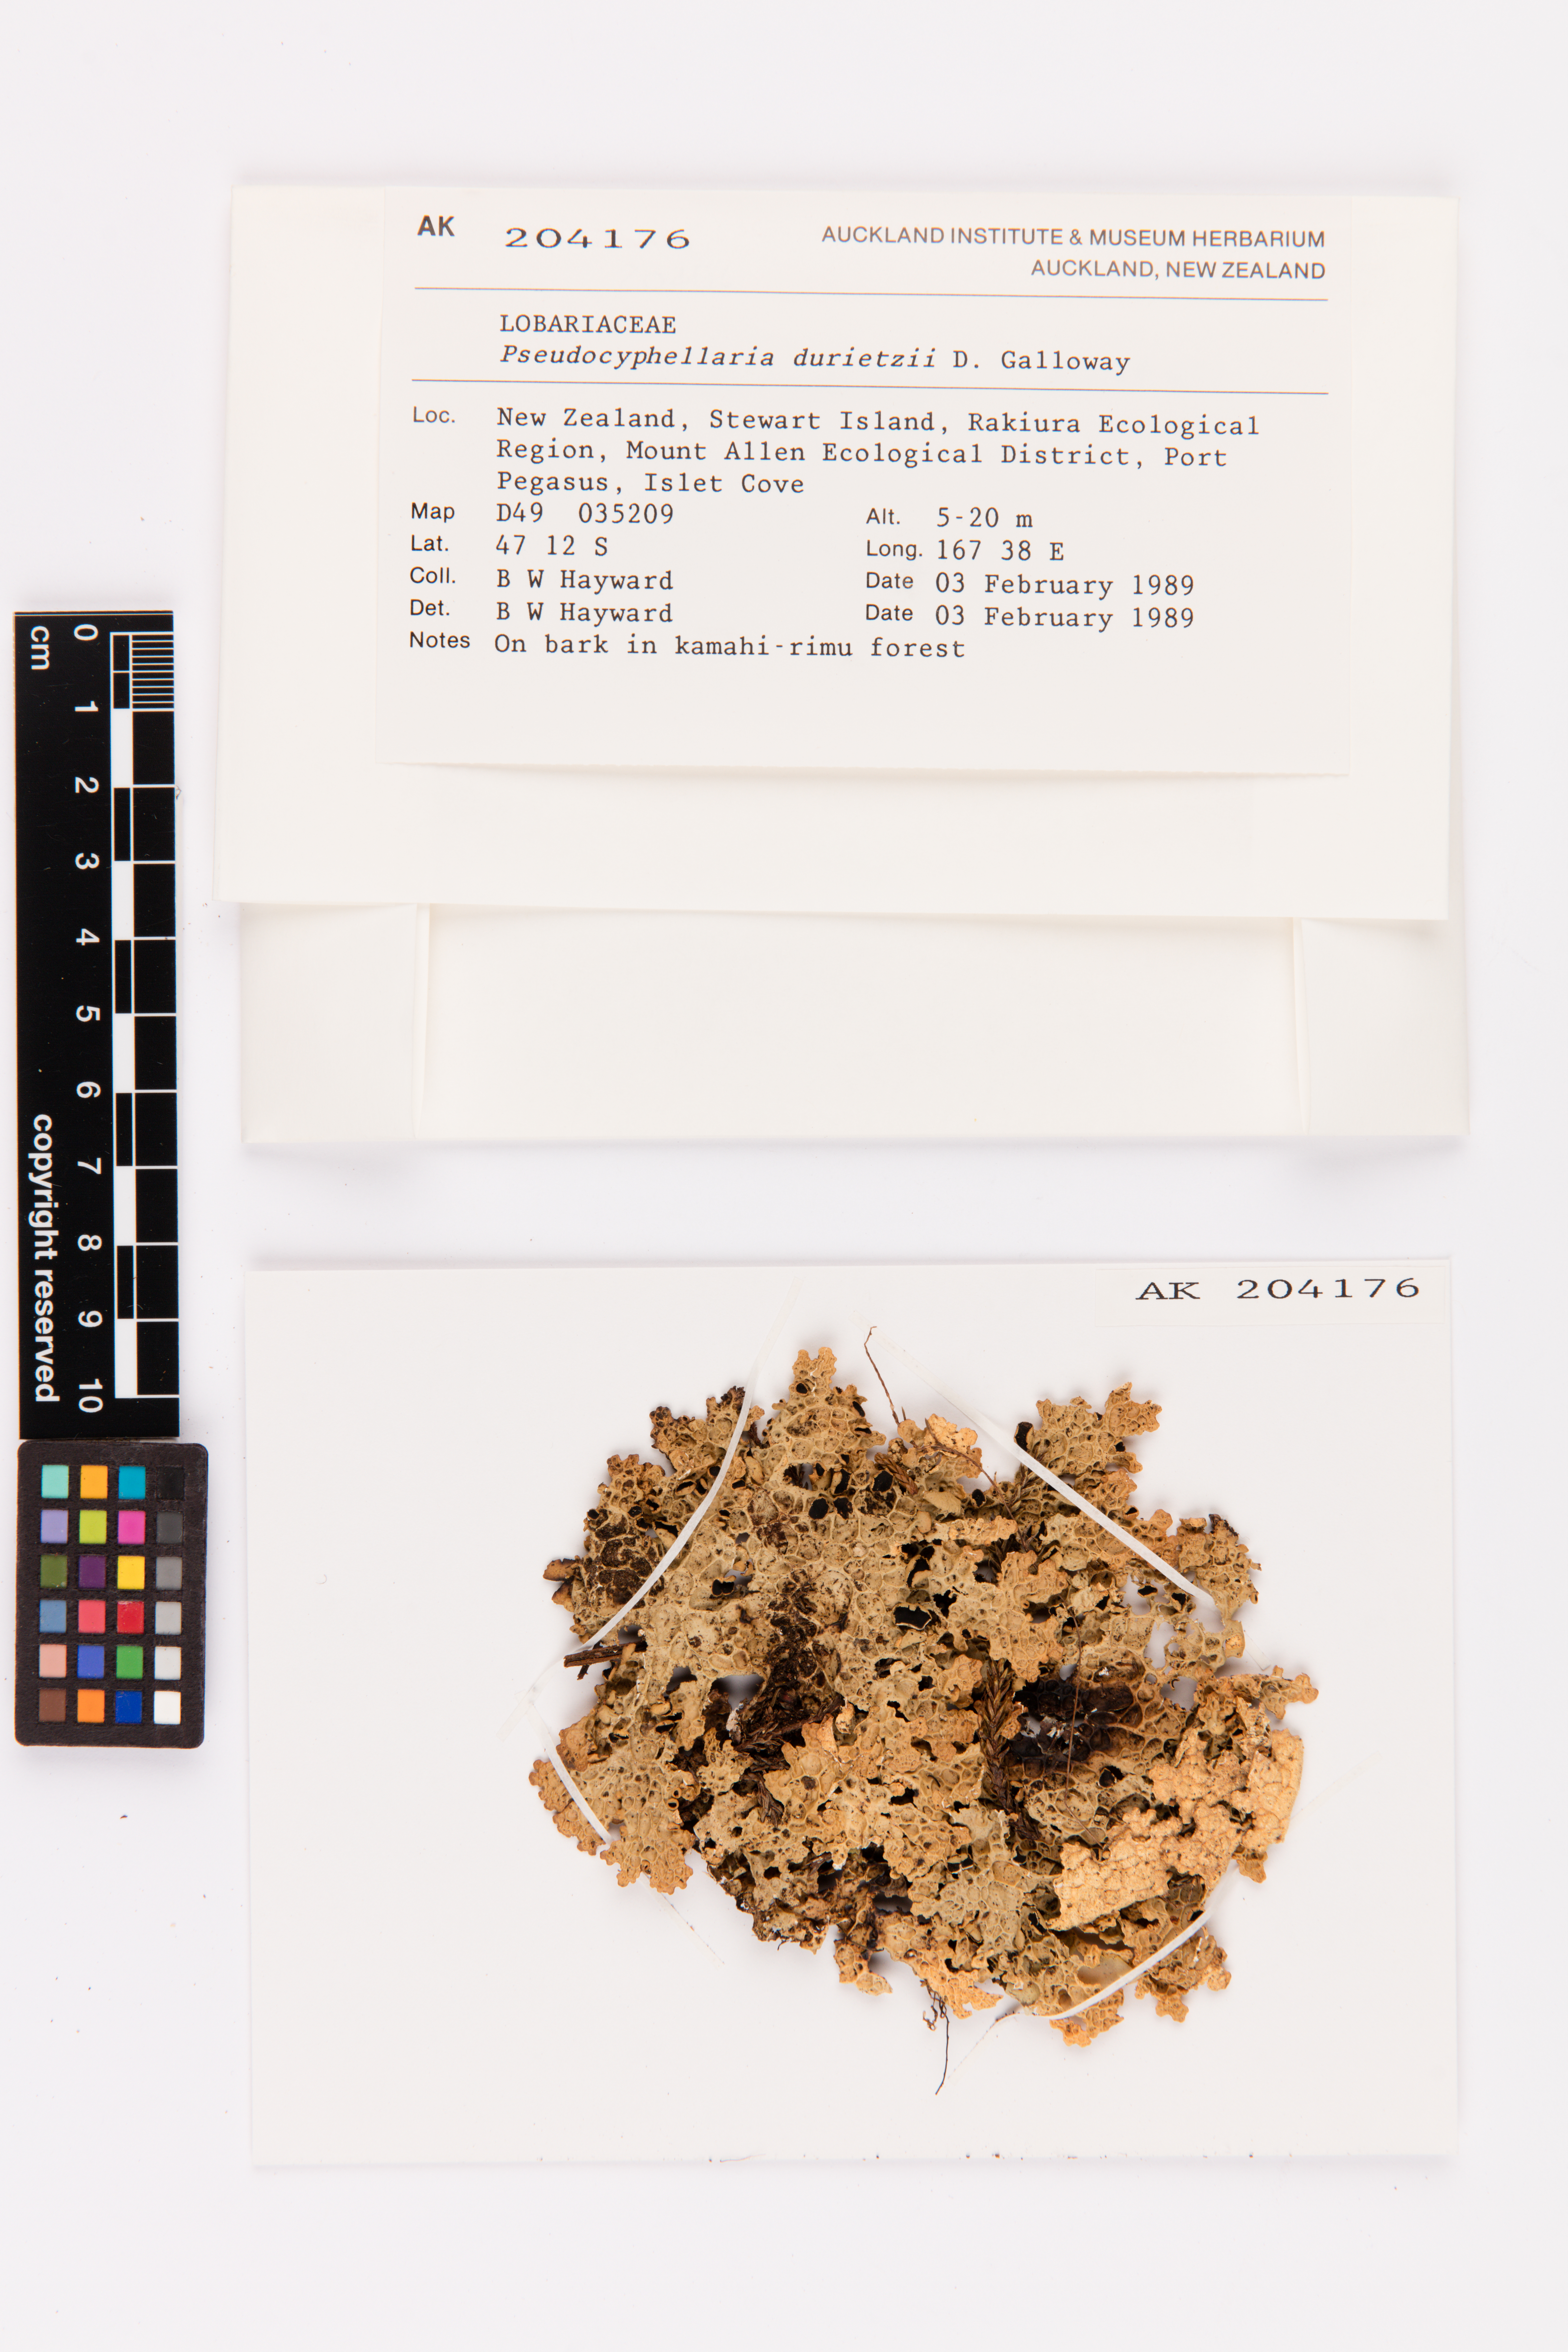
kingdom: Fungi
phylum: Ascomycota
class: Lecanoromycetes
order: Peltigerales
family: Lobariaceae
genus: Pseudocyphellaria
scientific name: Pseudocyphellaria durietzii
